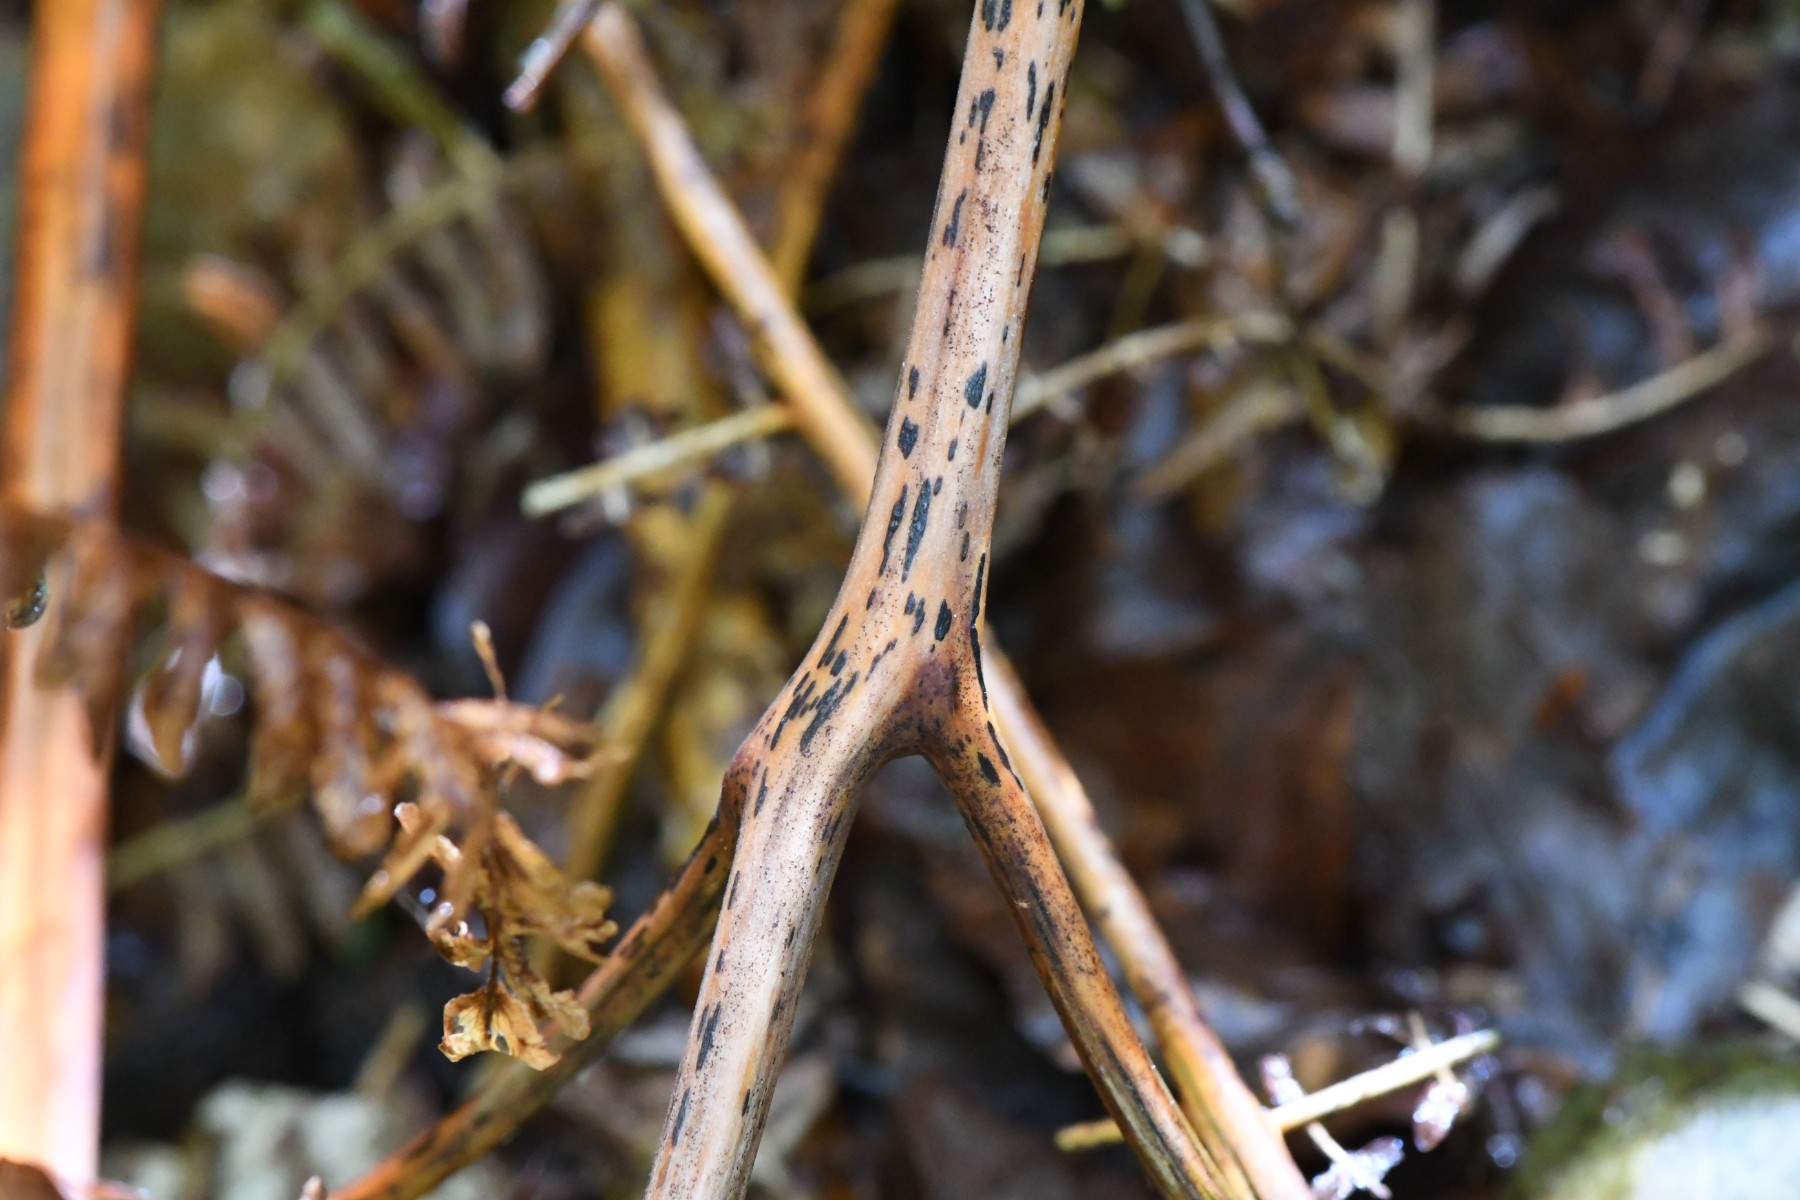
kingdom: Fungi
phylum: Ascomycota
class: Dothideomycetes
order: Pleosporales
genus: Rhopographus
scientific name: Rhopographus filicinus
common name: Bracken map
